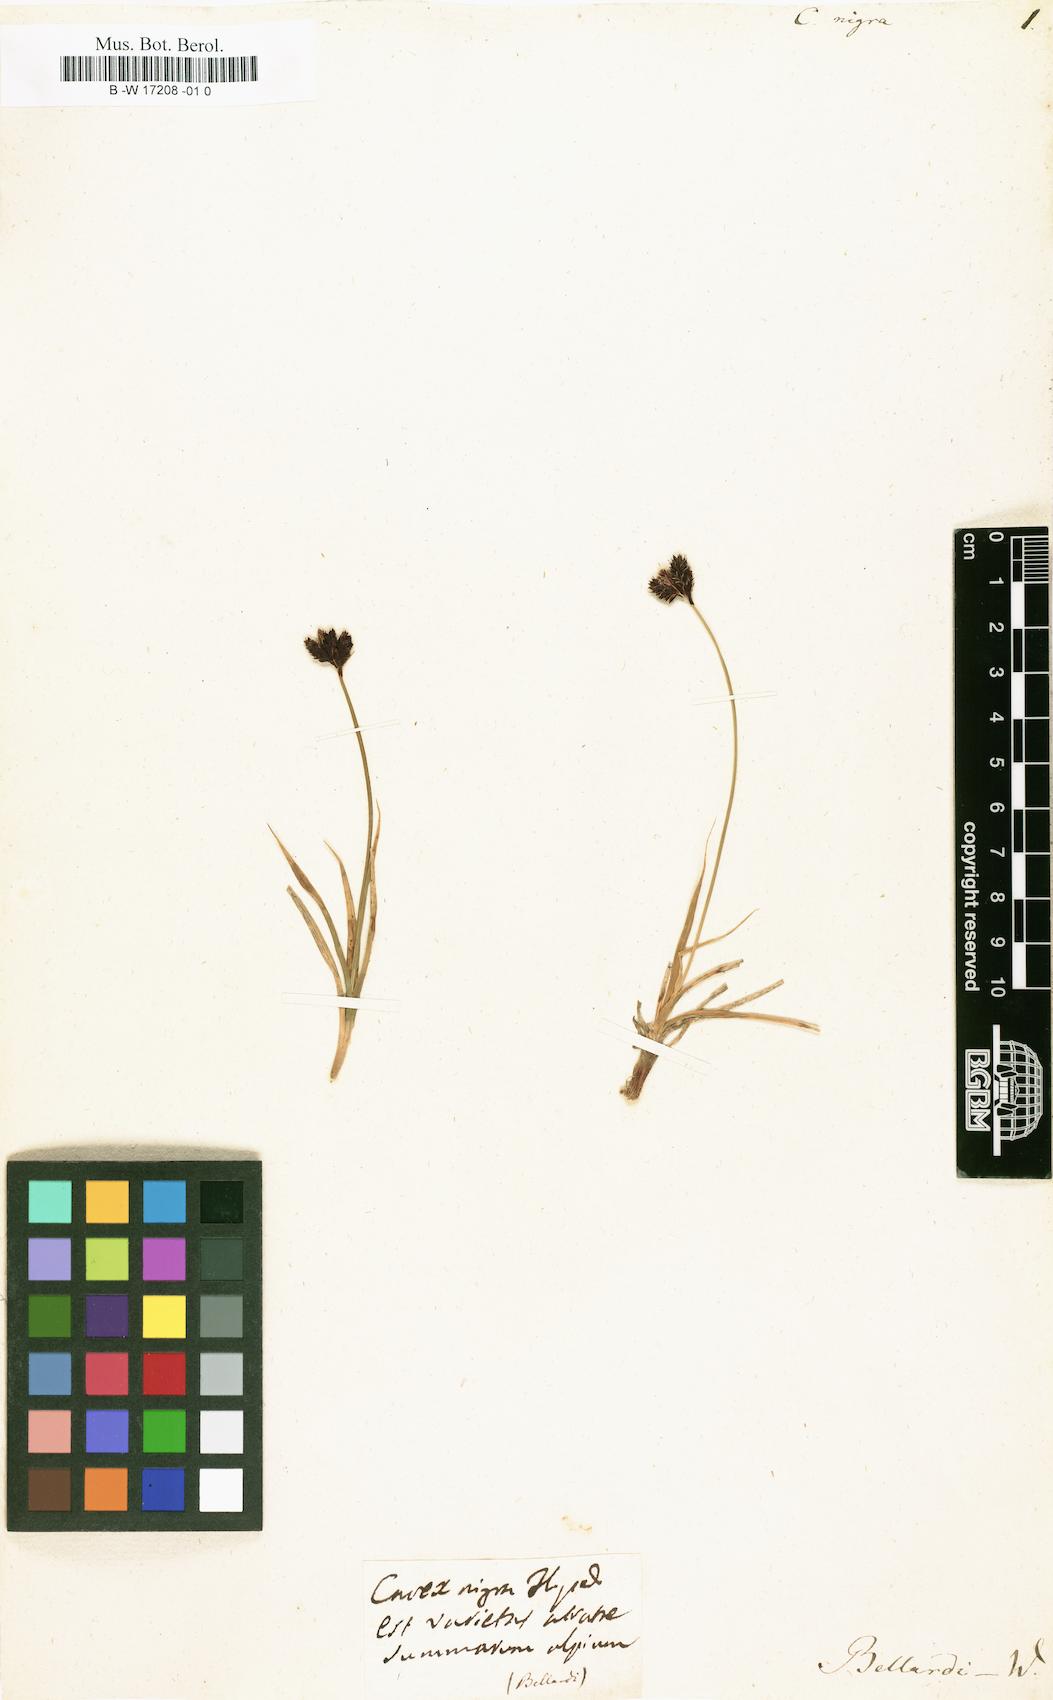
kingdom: Plantae
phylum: Tracheophyta
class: Liliopsida
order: Poales
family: Cyperaceae
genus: Carex
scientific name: Carex nigra
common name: Common sedge
